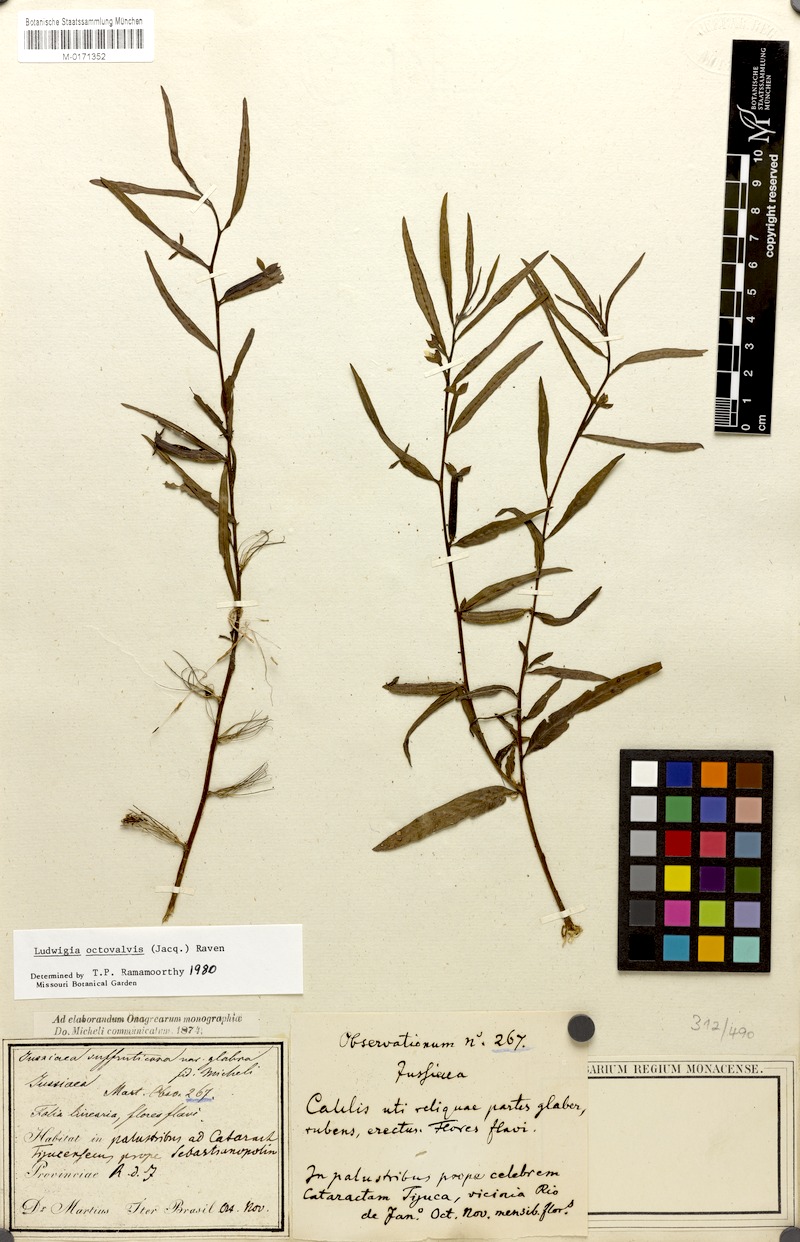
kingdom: Plantae
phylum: Tracheophyta
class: Magnoliopsida
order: Myrtales
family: Onagraceae
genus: Ludwigia
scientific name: Ludwigia octovalvis
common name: Water-primrose
